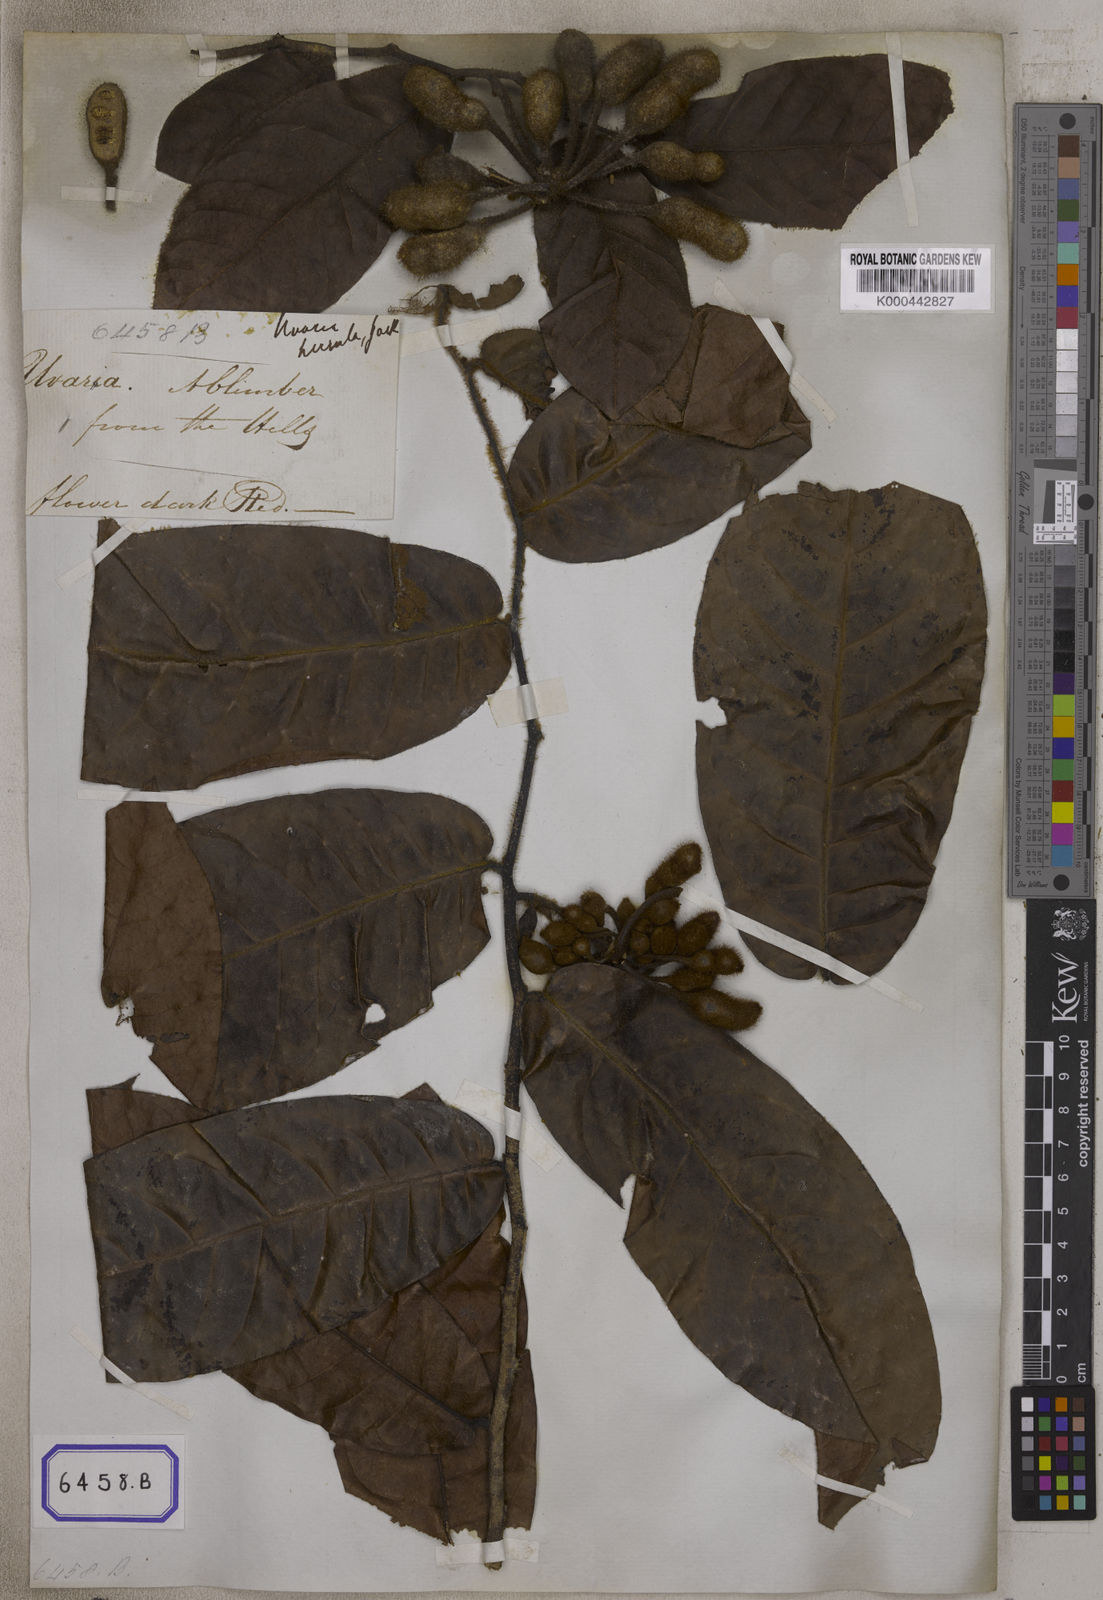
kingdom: Plantae
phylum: Tracheophyta
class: Magnoliopsida
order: Magnoliales
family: Annonaceae
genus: Uvaria
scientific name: Uvaria hirsuta
